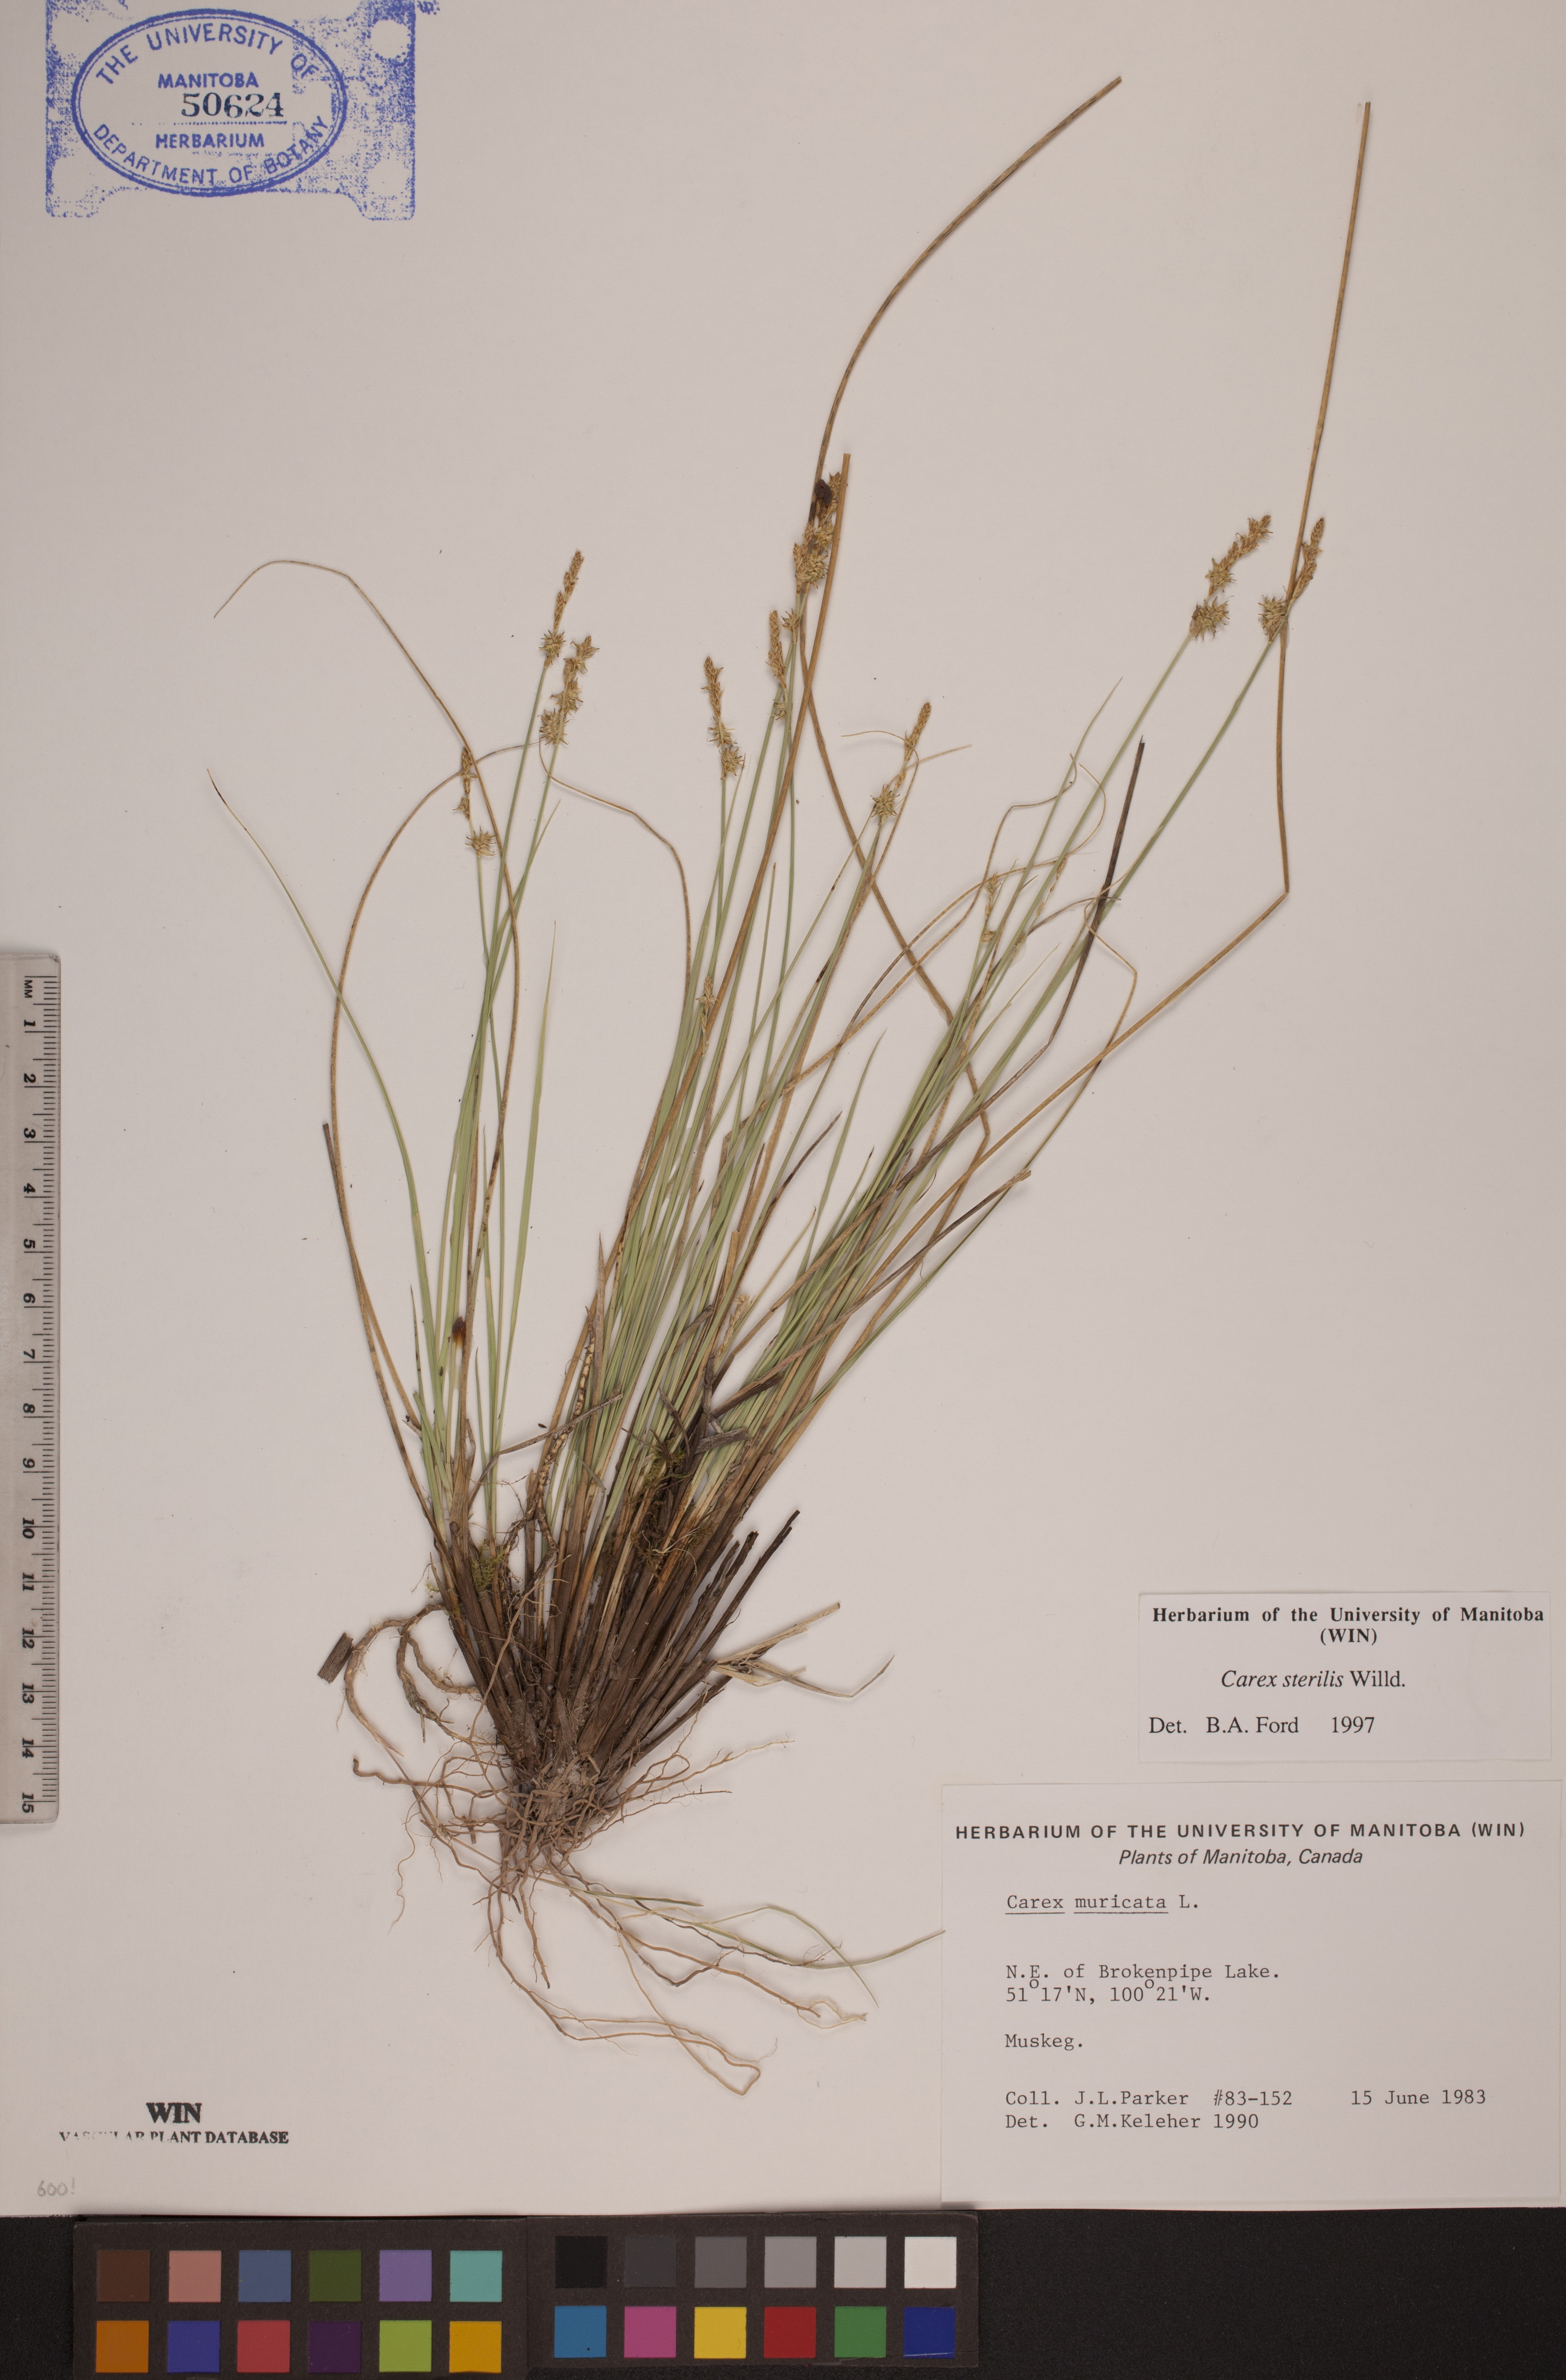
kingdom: Plantae
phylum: Tracheophyta
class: Liliopsida
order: Poales
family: Cyperaceae
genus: Carex
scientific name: Carex sterilis
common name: Dioecious sedge
